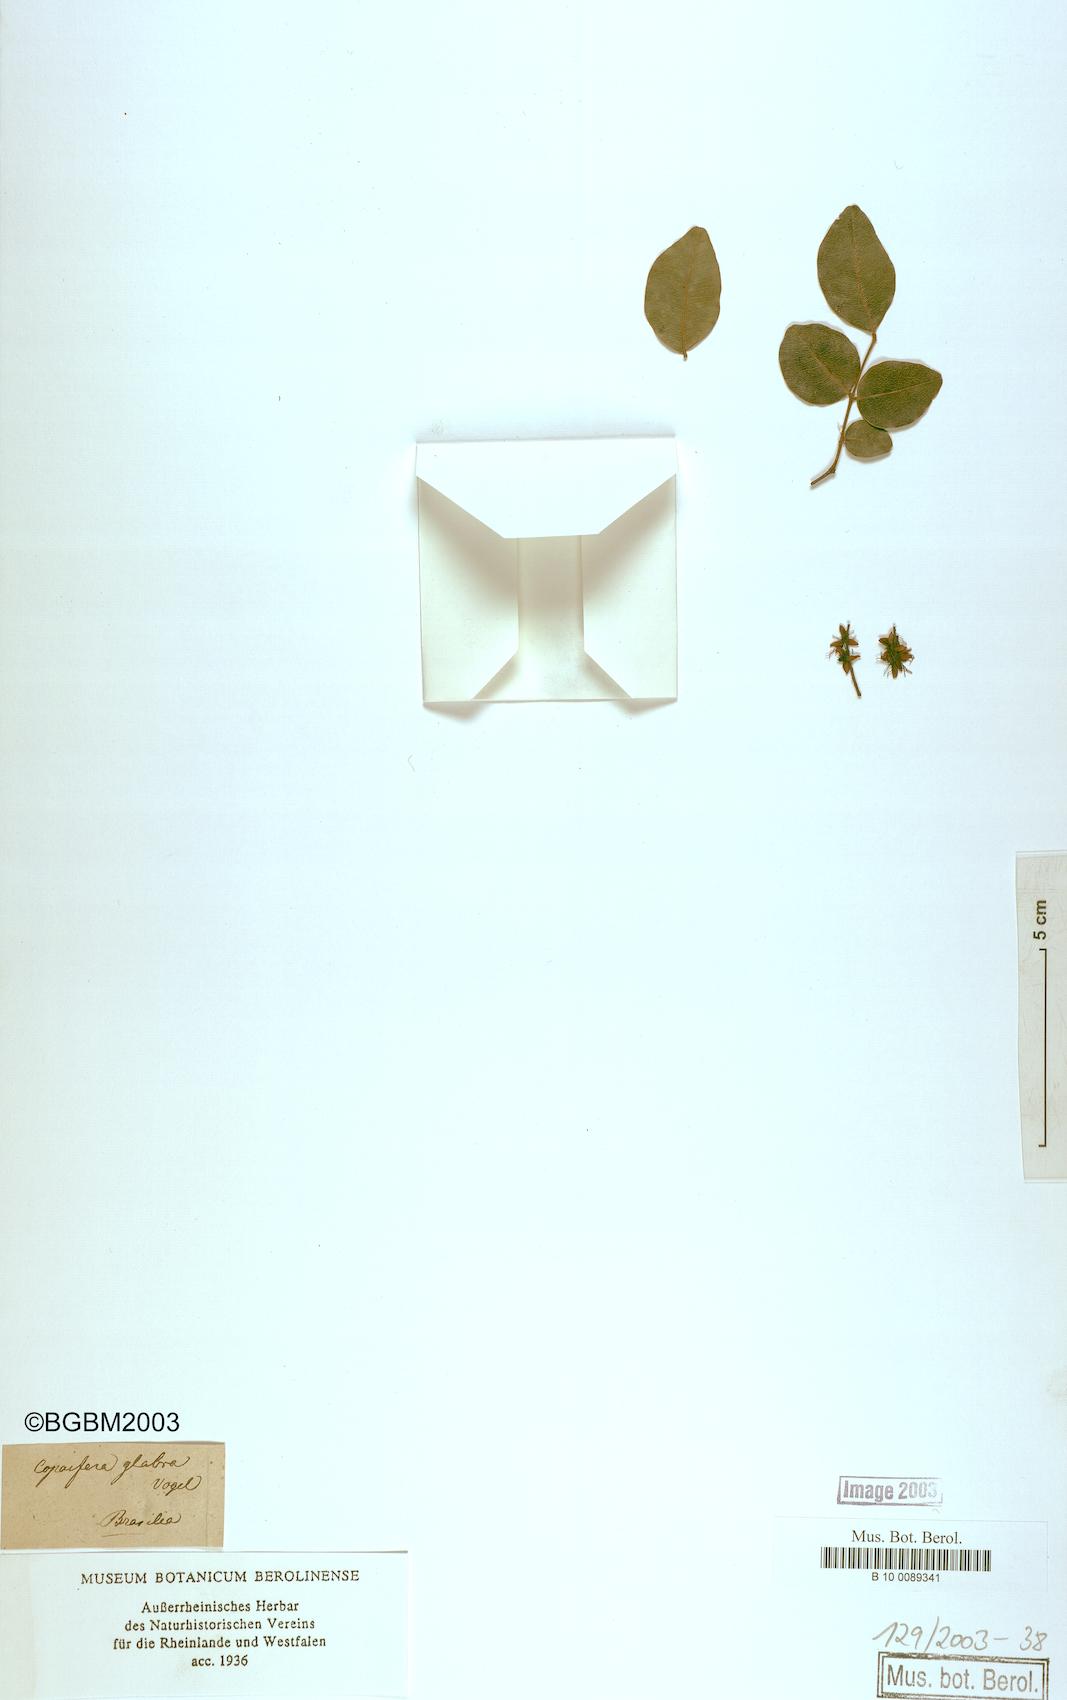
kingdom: Plantae
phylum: Tracheophyta
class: Magnoliopsida
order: Fabales
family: Fabaceae
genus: Copaifera
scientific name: Copaifera langsdorffii
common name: Brazilian diesel tree
